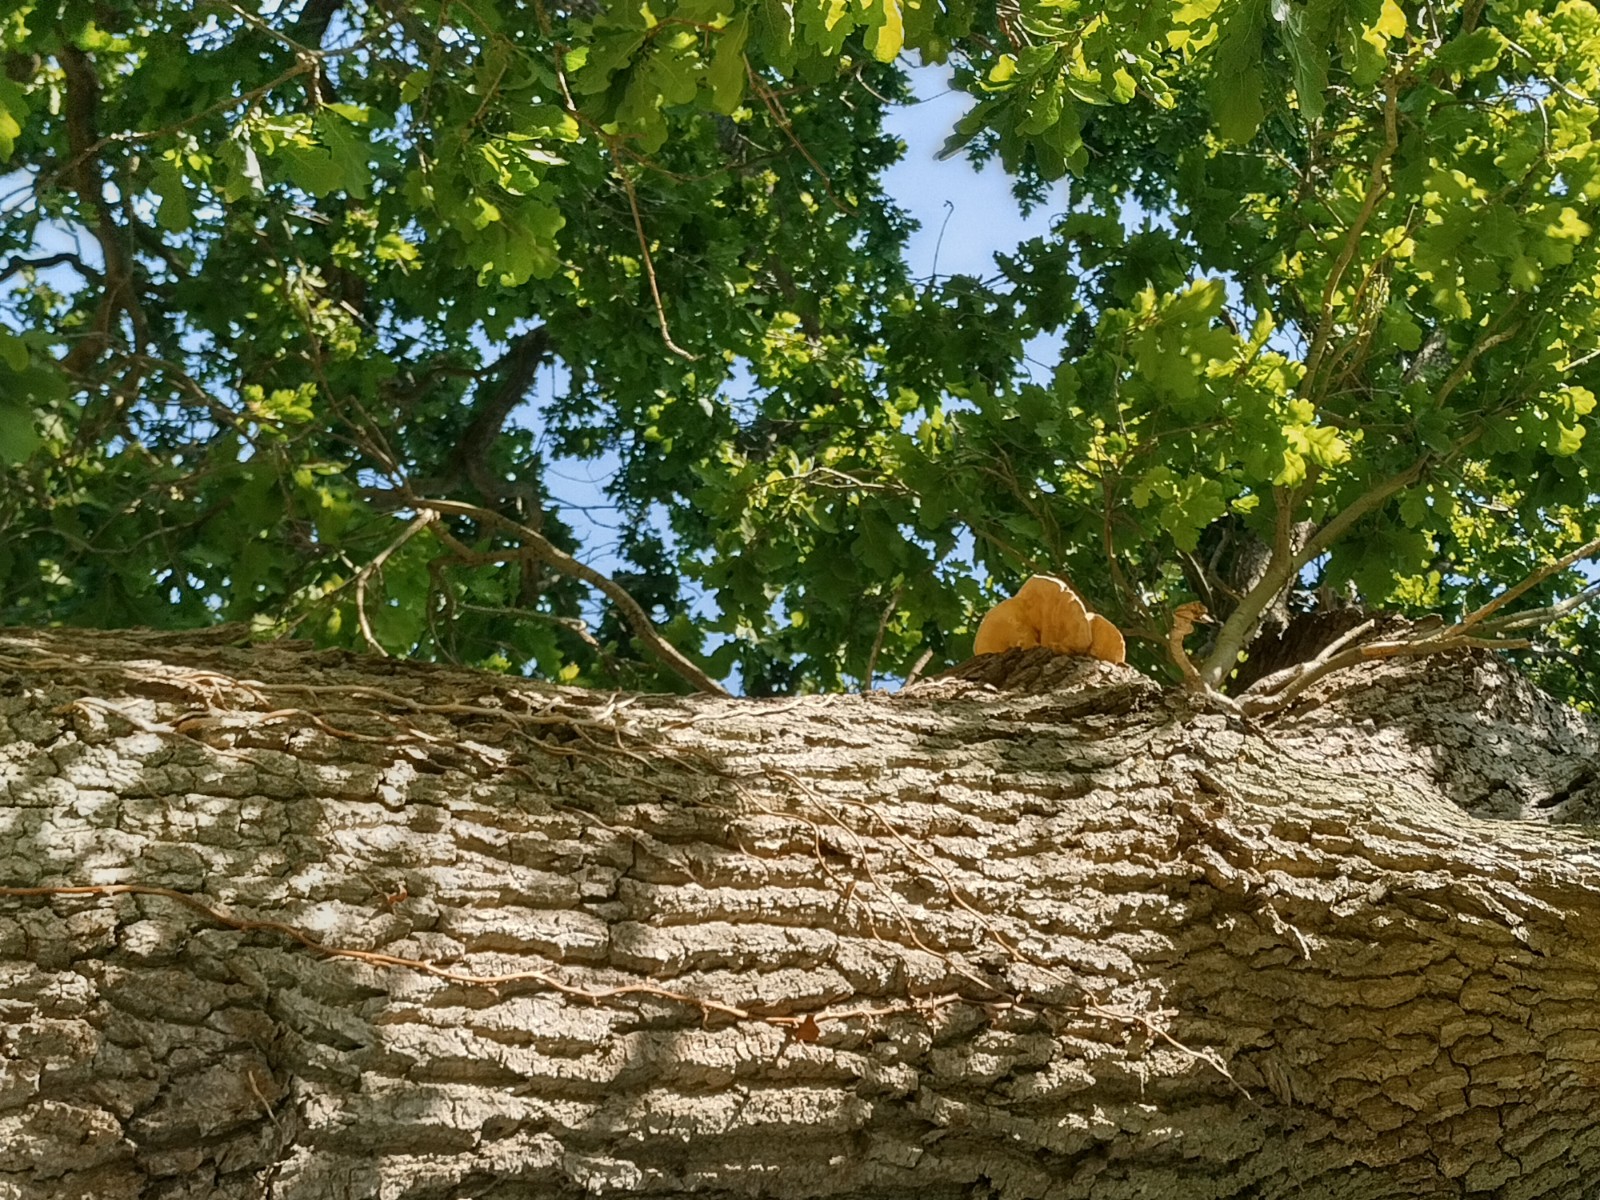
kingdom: Fungi
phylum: Basidiomycota
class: Agaricomycetes
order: Polyporales
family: Laetiporaceae
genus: Laetiporus
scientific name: Laetiporus sulphureus
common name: svovlporesvamp
